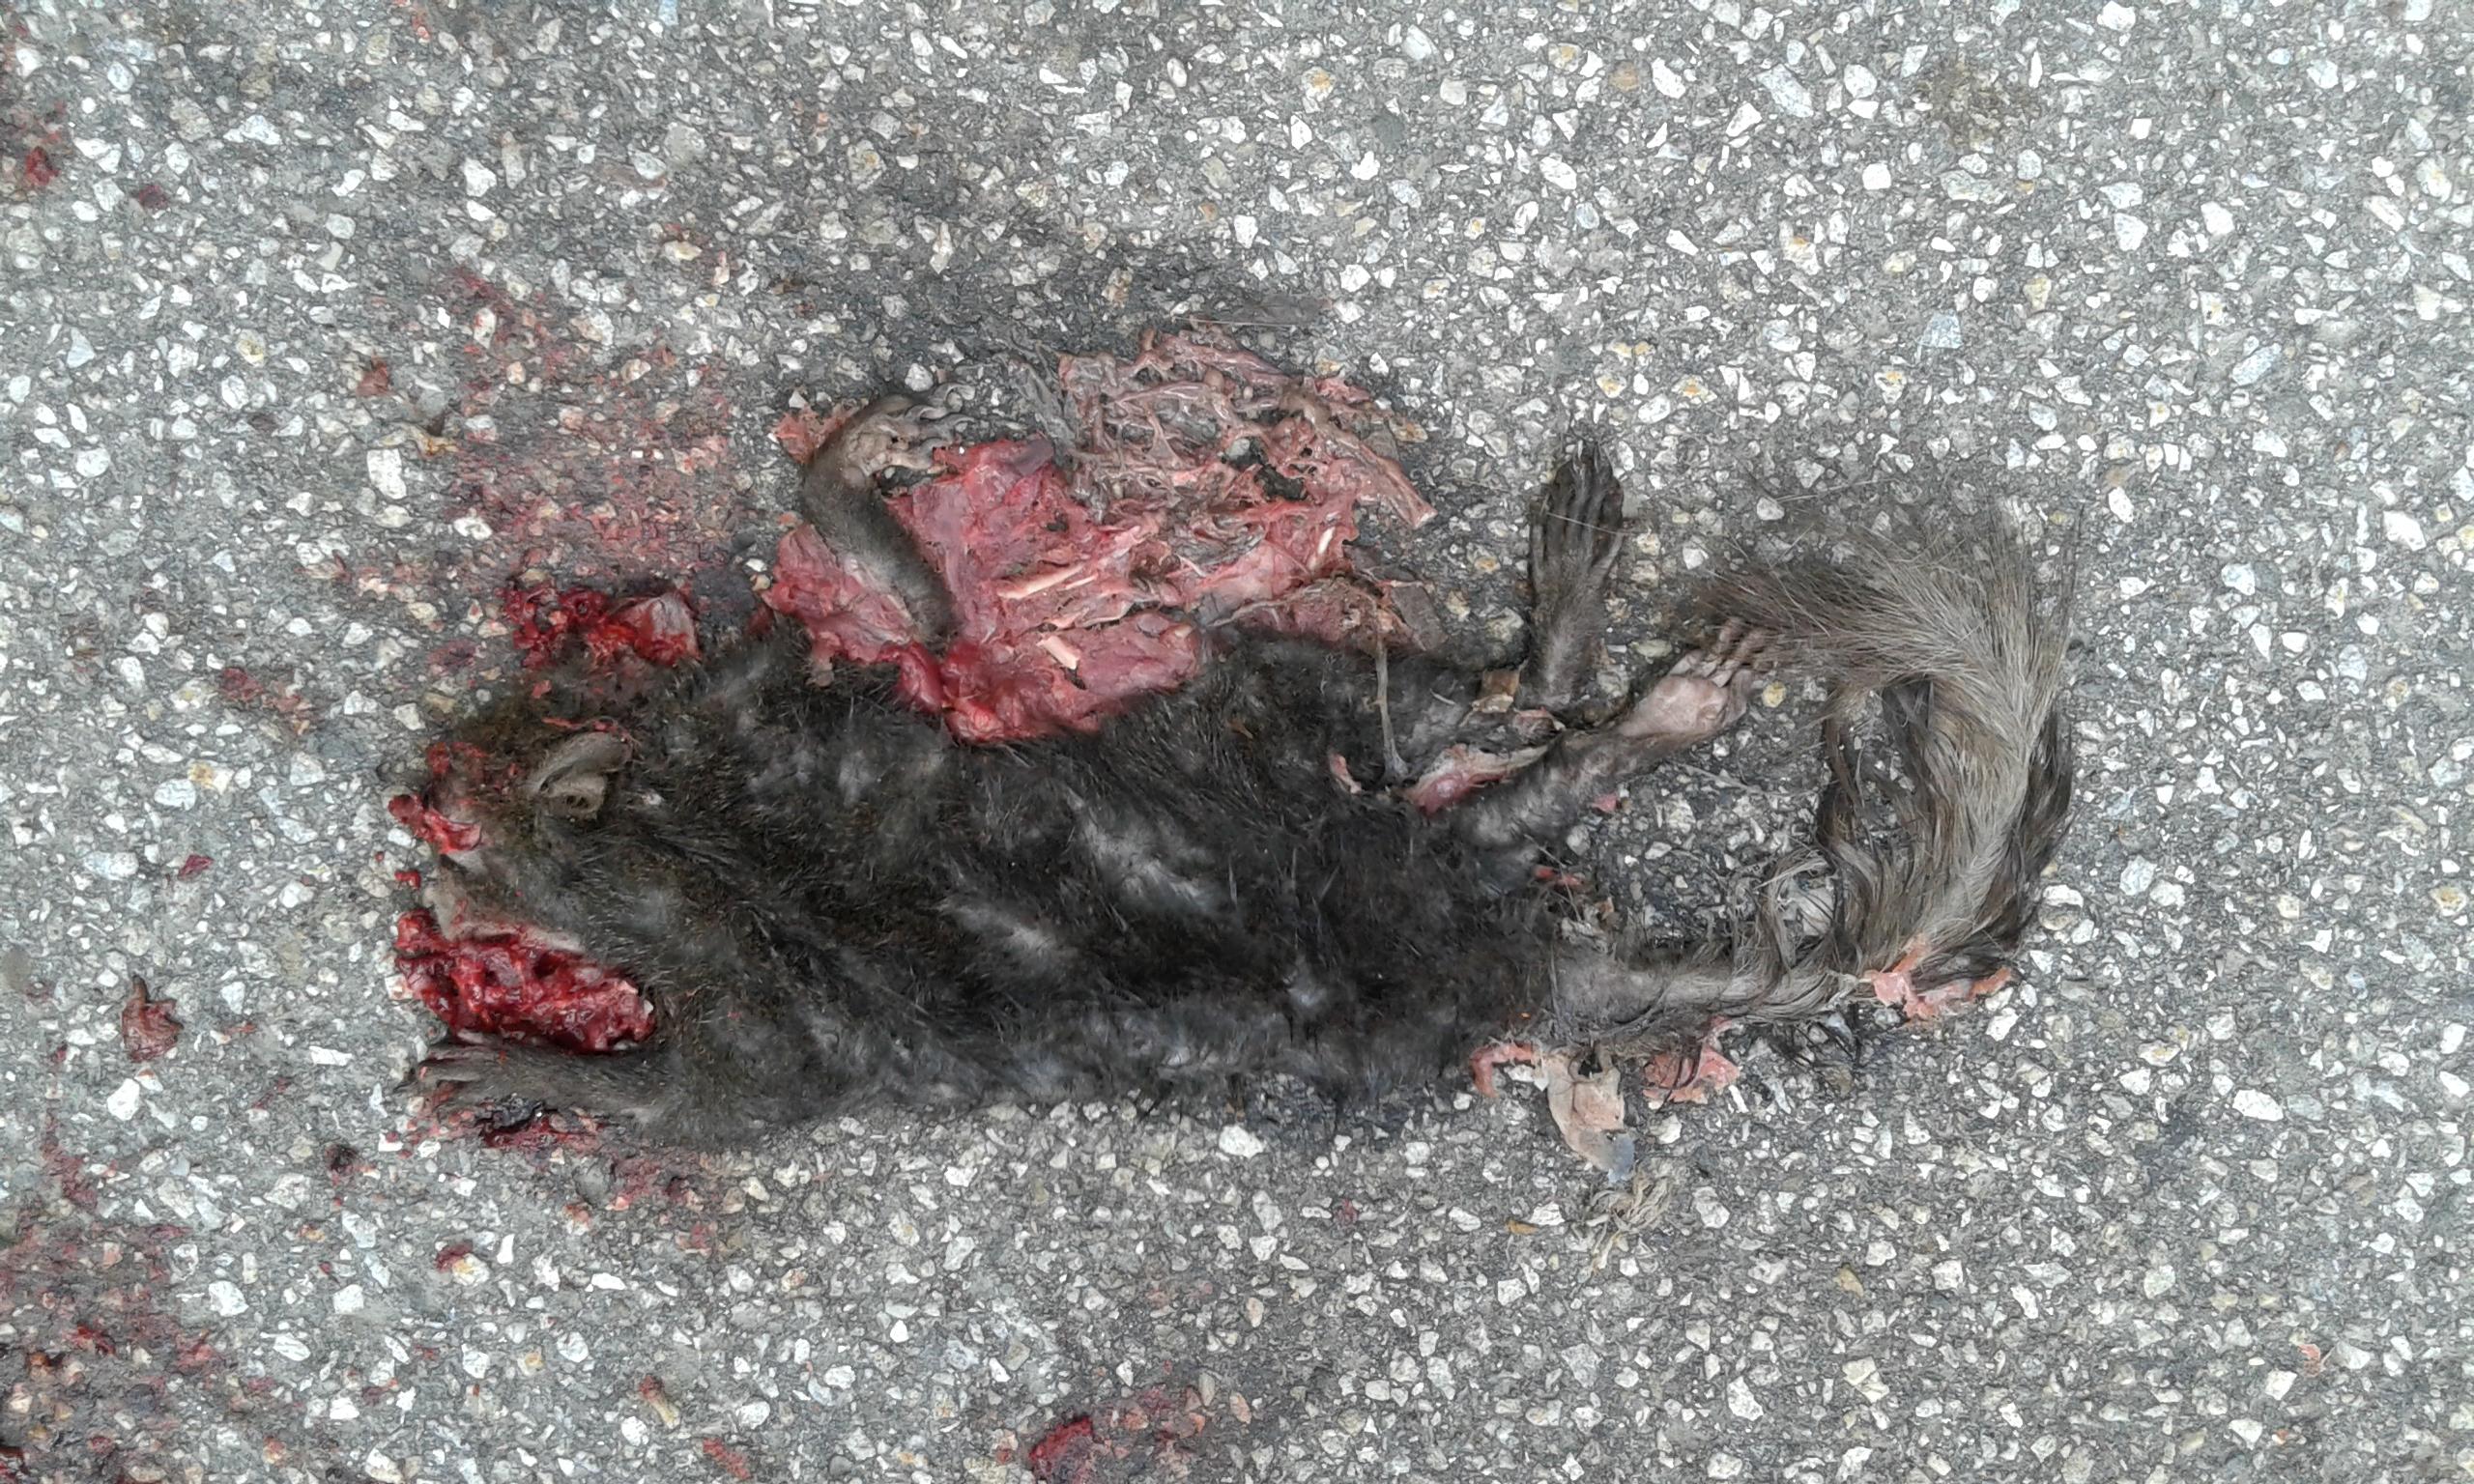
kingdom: Animalia
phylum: Chordata
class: Mammalia
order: Rodentia
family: Sciuridae
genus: Sciurus
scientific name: Sciurus vulgaris
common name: Eurasian red squirrel
